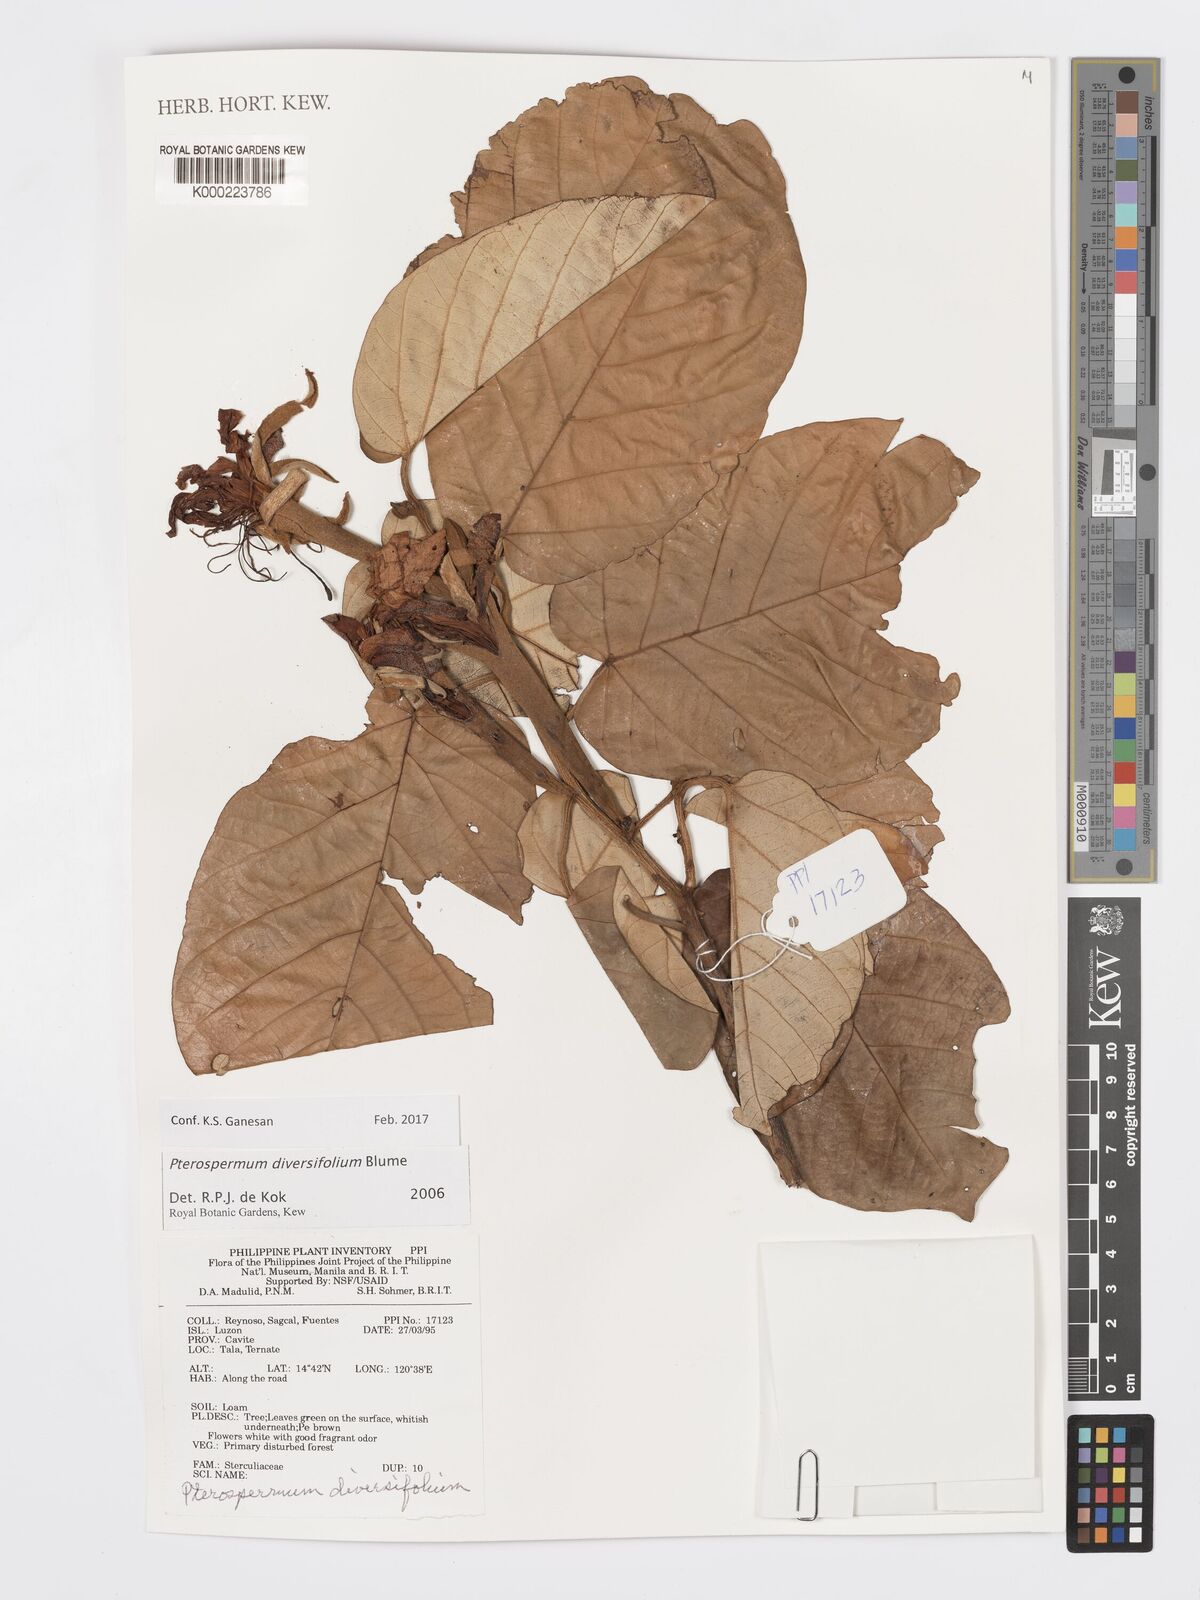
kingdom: Plantae
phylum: Tracheophyta
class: Magnoliopsida
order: Malvales
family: Malvaceae
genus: Pterospermum
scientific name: Pterospermum diversifolium
